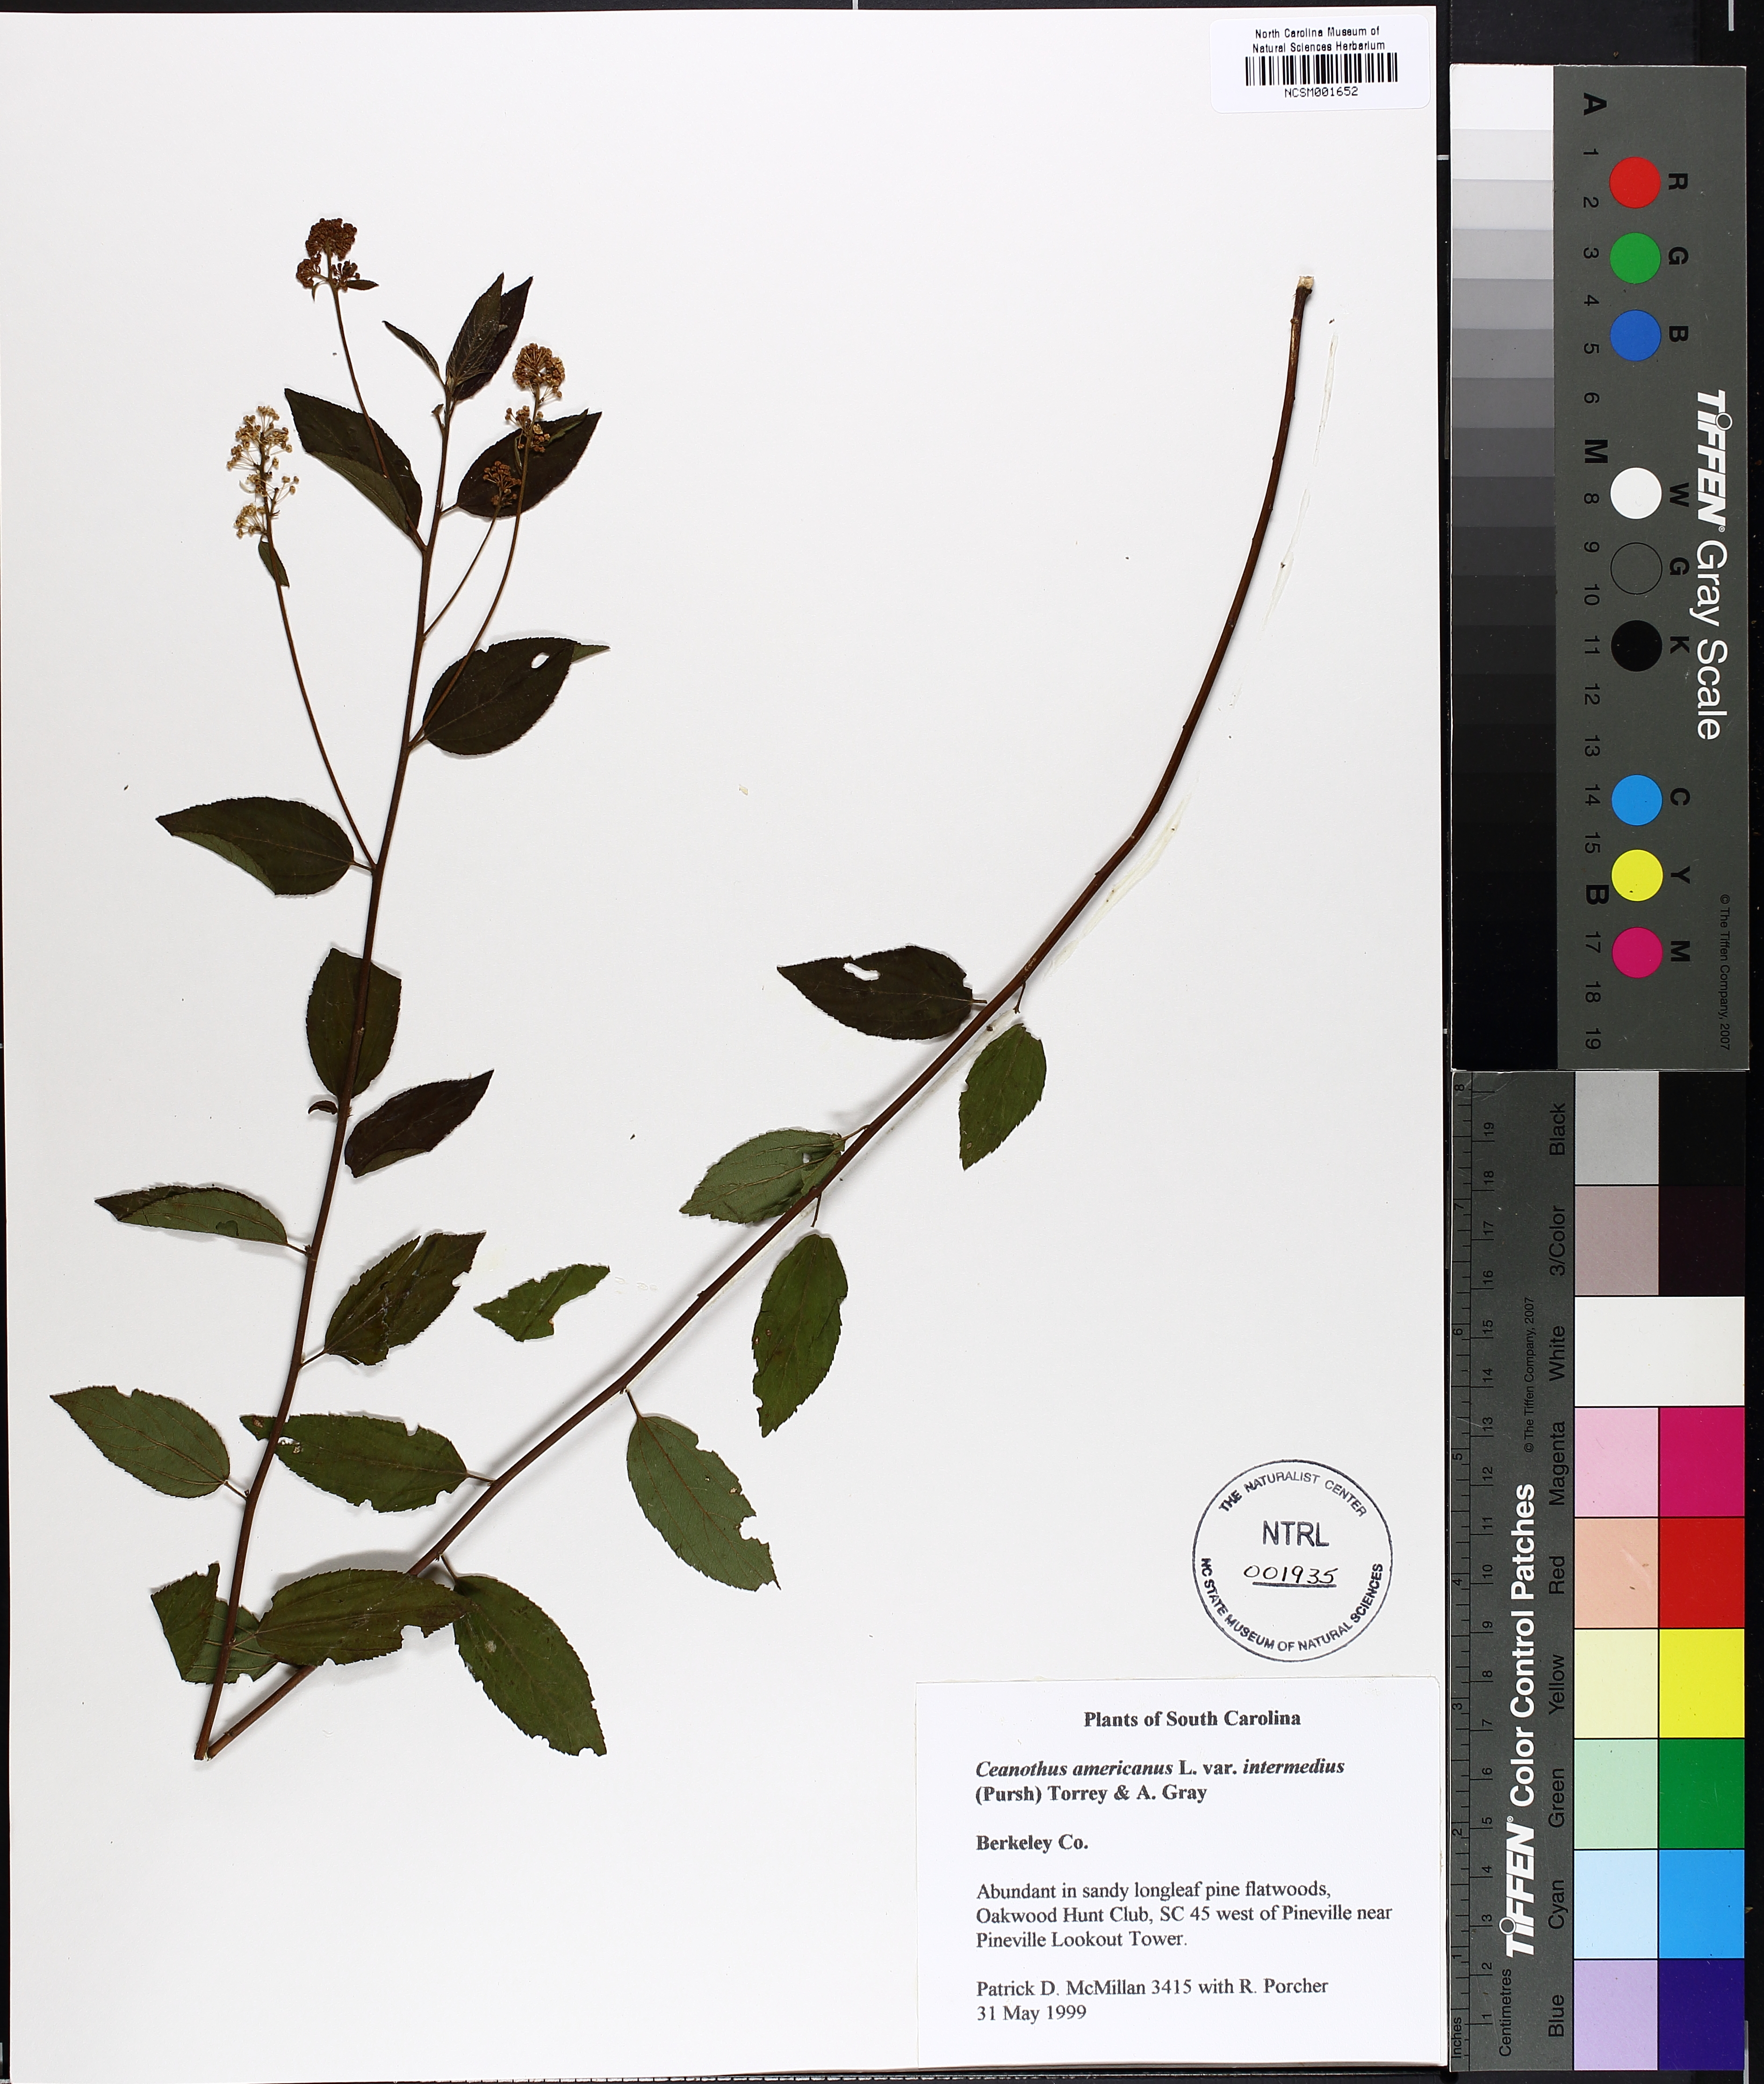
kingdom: Plantae
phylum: Tracheophyta
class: Magnoliopsida
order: Rosales
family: Rhamnaceae
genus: Ceanothus
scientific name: Ceanothus americanus
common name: Redroot
